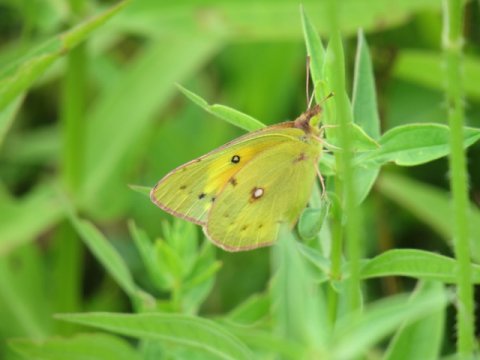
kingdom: Animalia
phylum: Arthropoda
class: Insecta
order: Lepidoptera
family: Pieridae
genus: Colias
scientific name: Colias eurytheme
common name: Orange Sulphur
